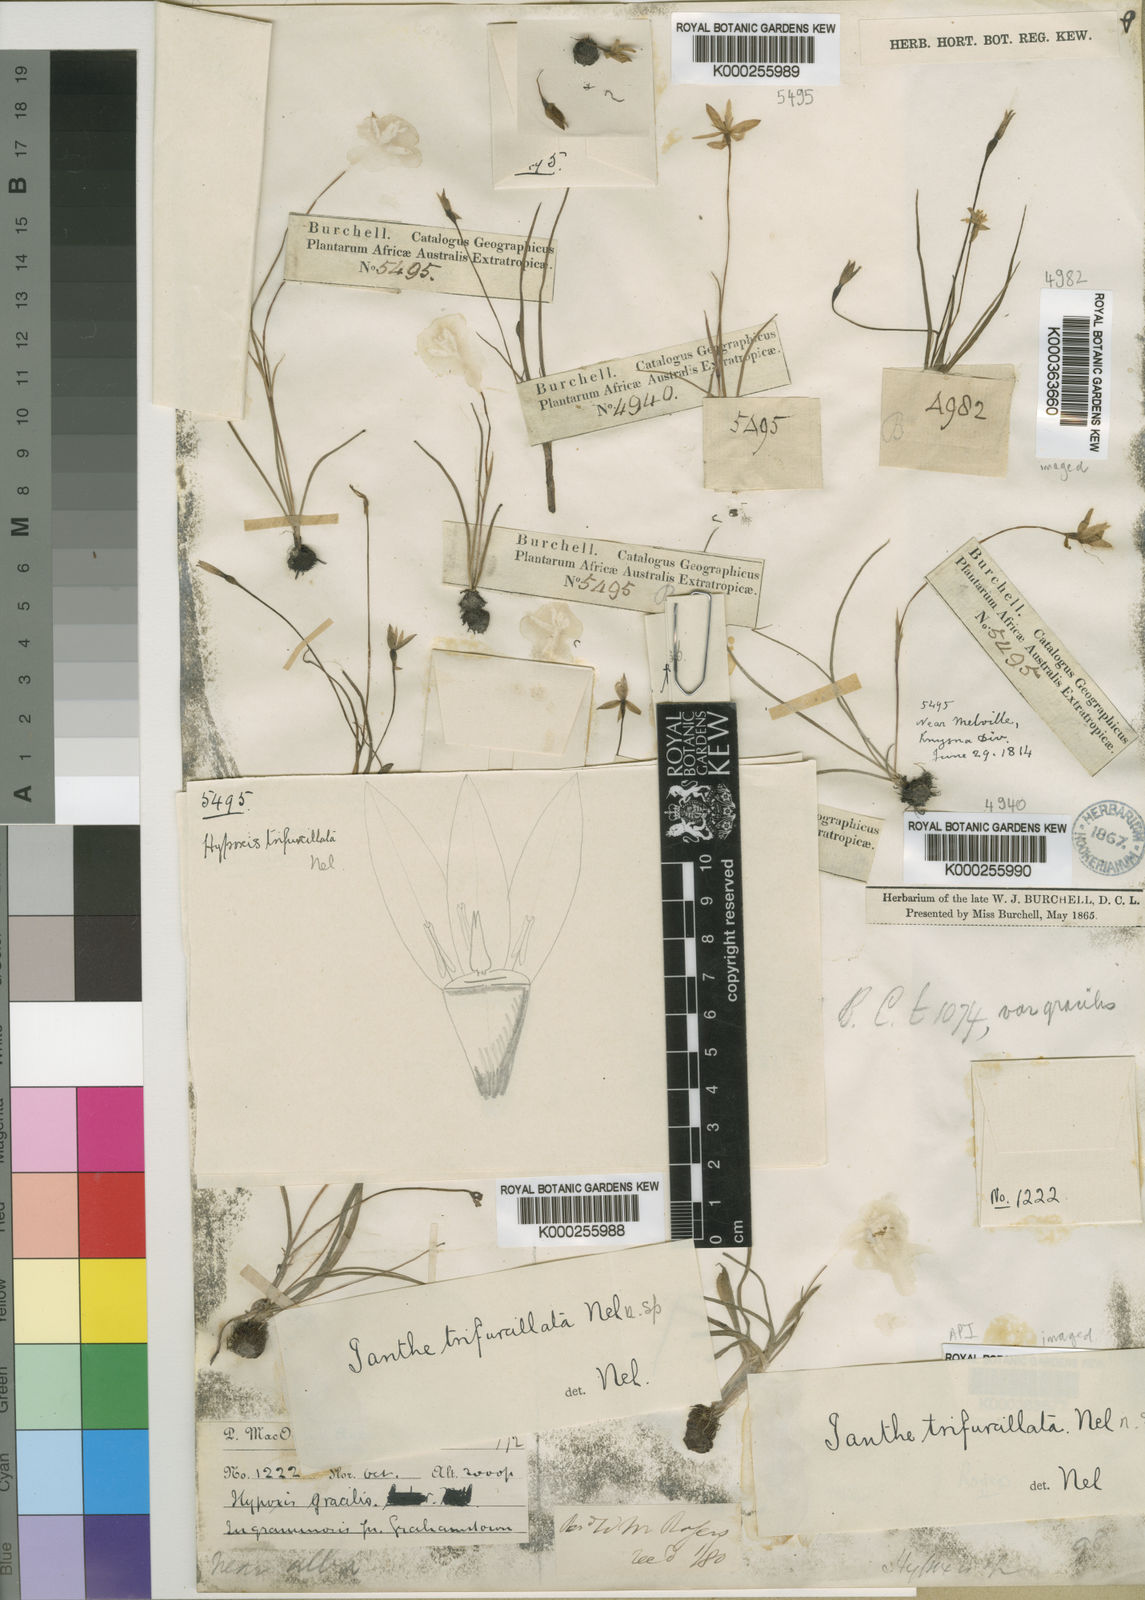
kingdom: Plantae
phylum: Tracheophyta
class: Liliopsida
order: Asparagales
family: Hypoxidaceae
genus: Pauridia
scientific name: Pauridia trifurcillata
